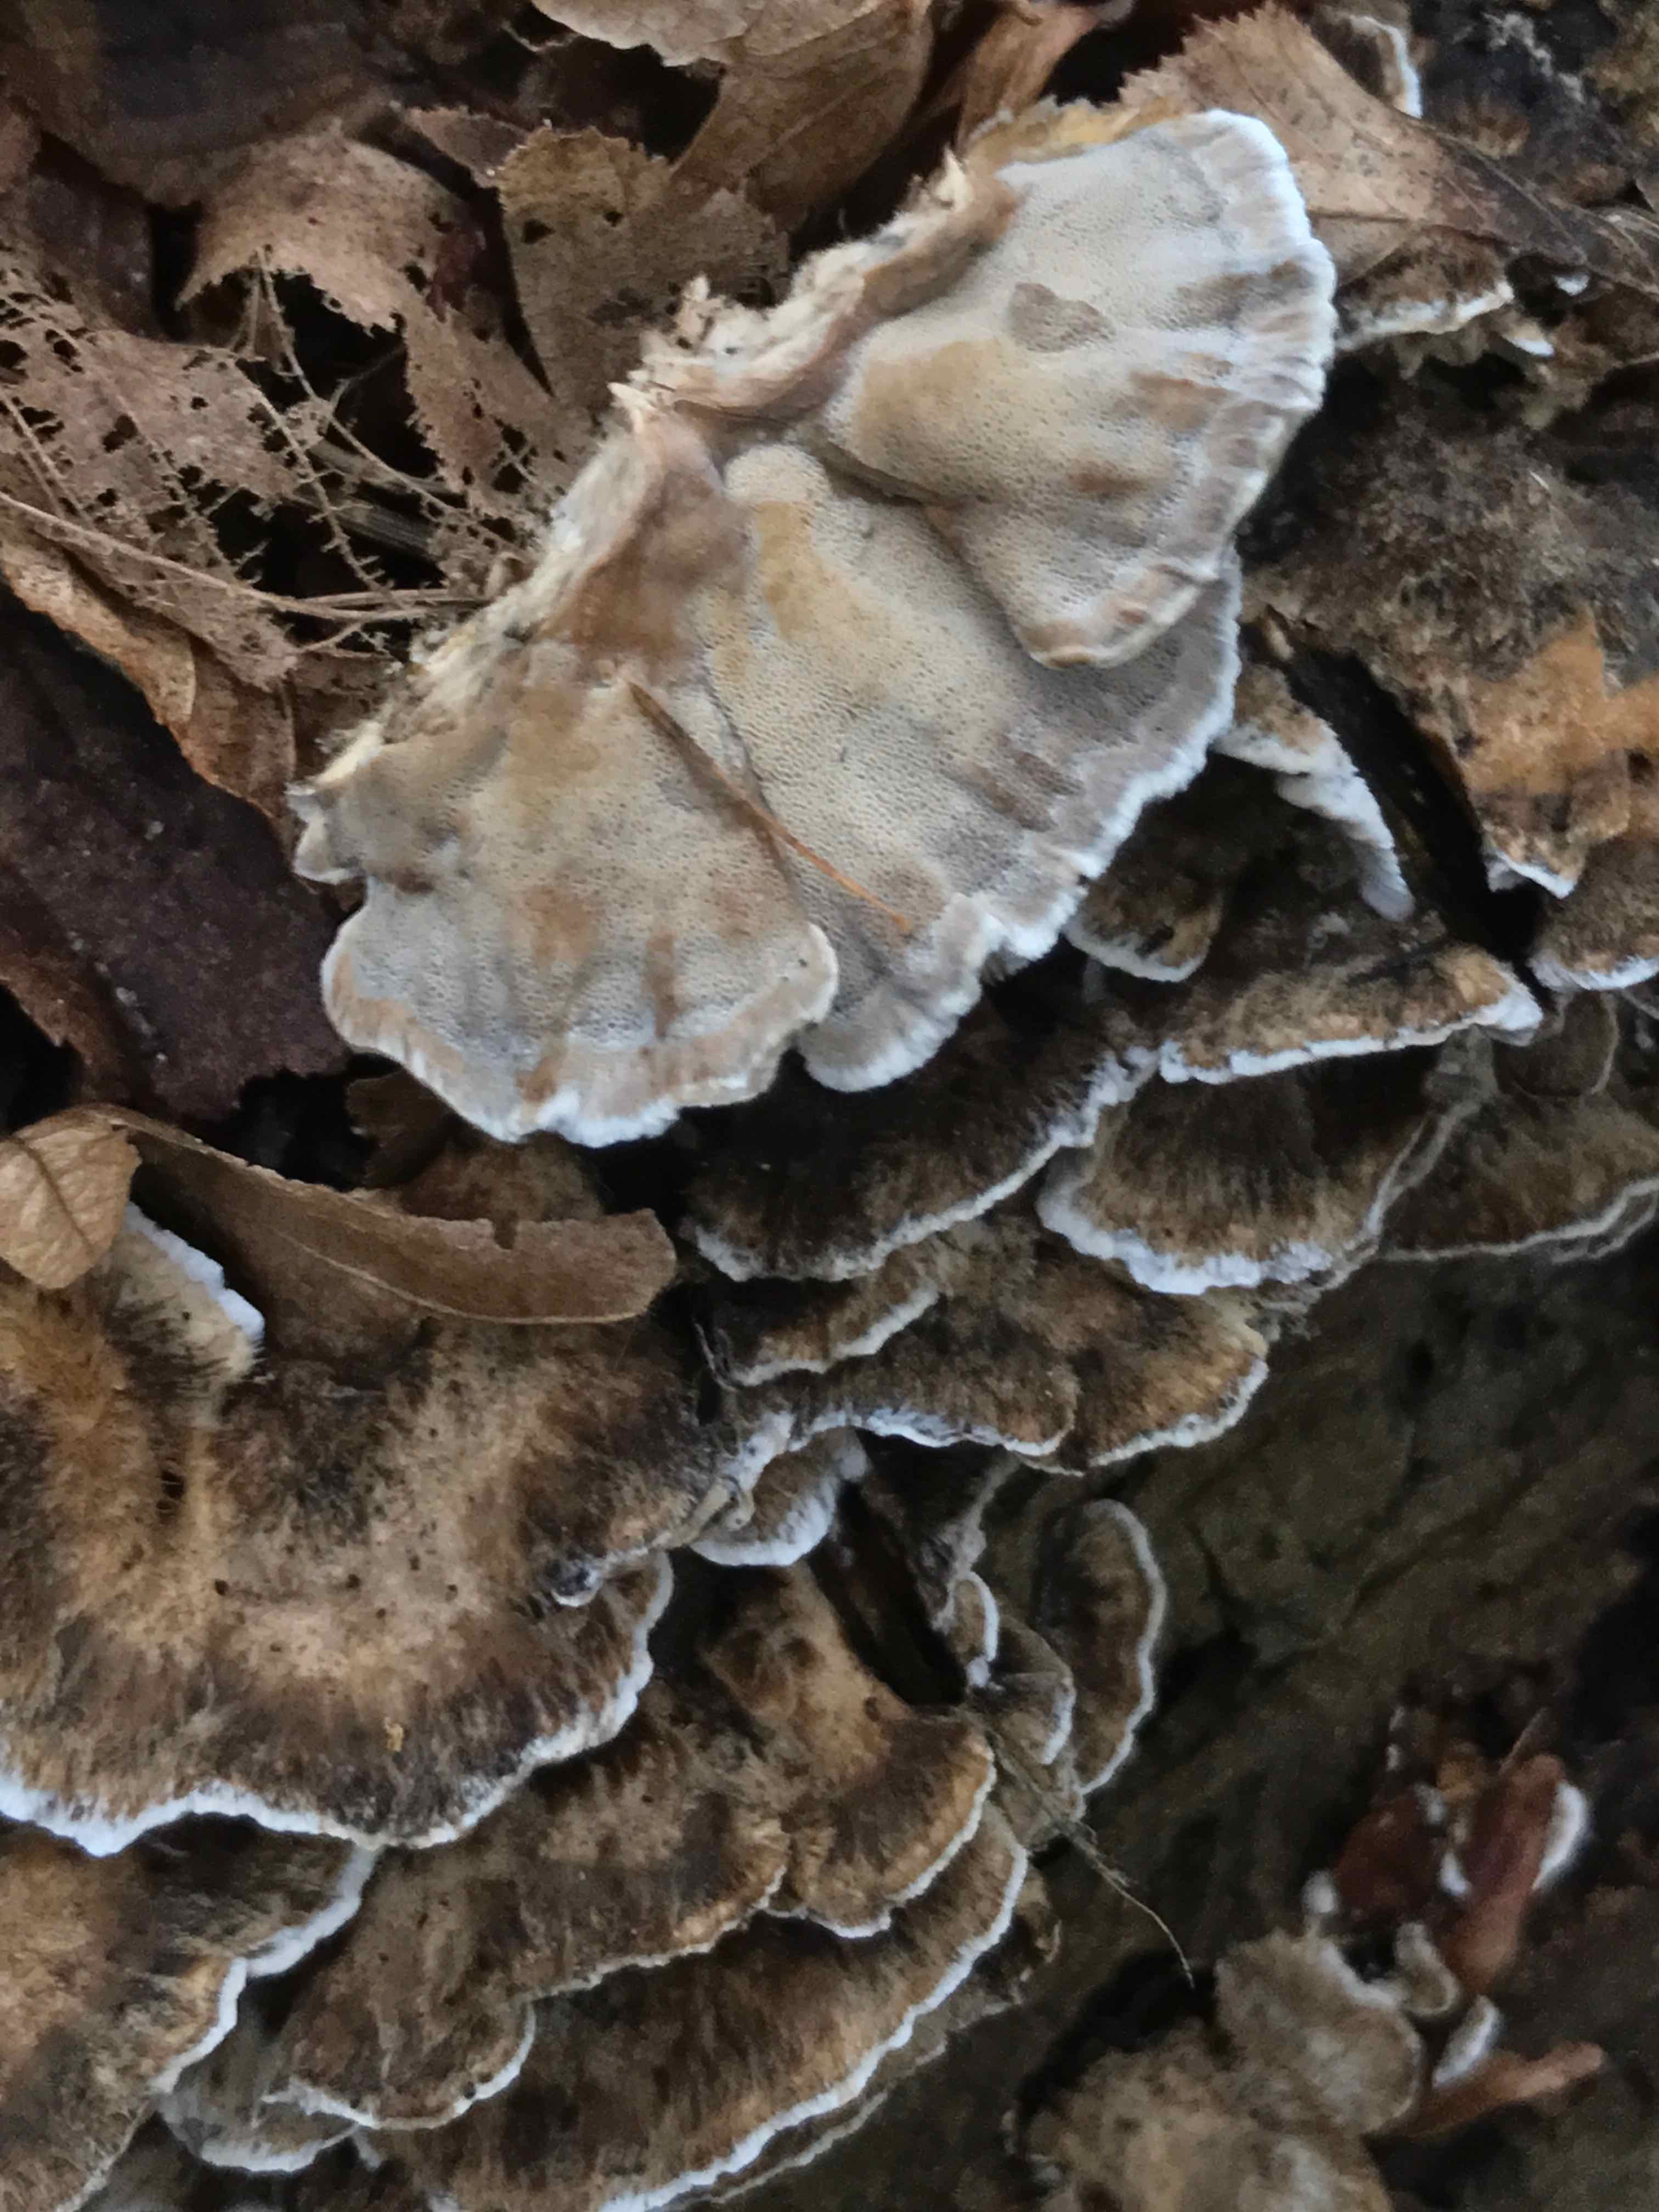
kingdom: Fungi
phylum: Basidiomycota
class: Agaricomycetes
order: Polyporales
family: Phanerochaetaceae
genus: Bjerkandera
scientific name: Bjerkandera adusta
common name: sveden sodporesvamp
